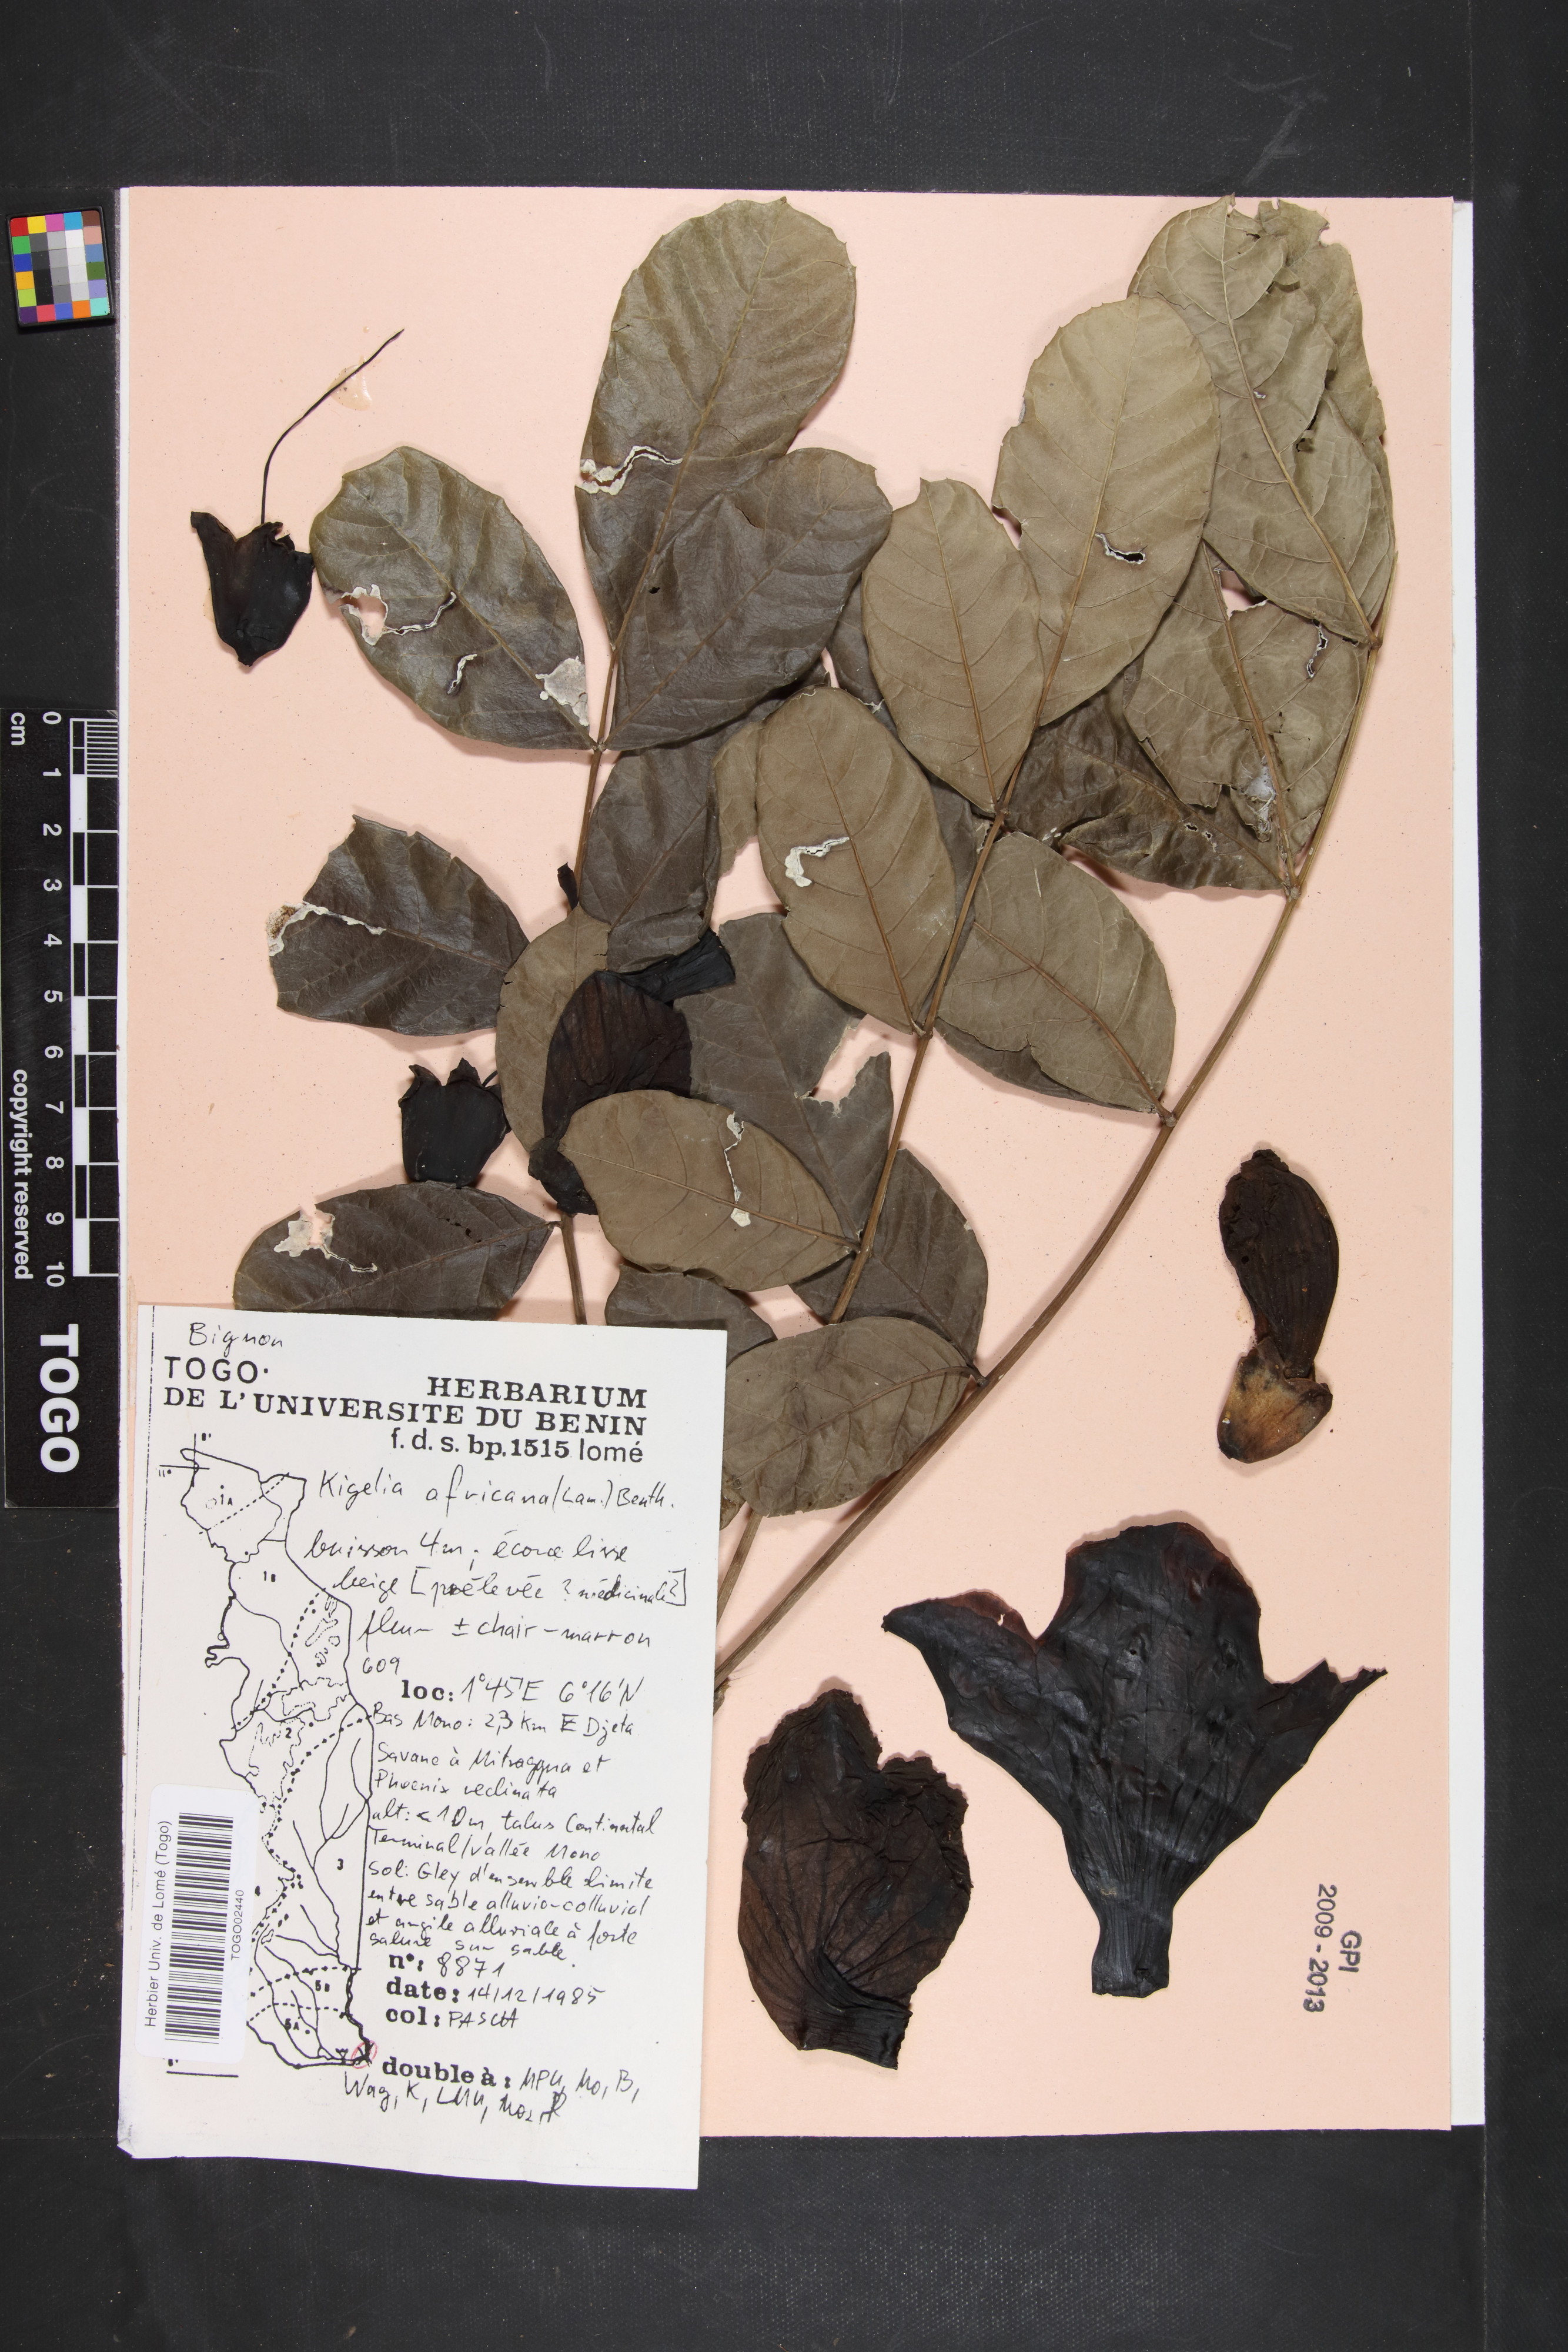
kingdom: Plantae
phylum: Tracheophyta
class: Magnoliopsida
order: Lamiales
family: Bignoniaceae
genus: Kigelia
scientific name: Kigelia africana
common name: Sausage tree
